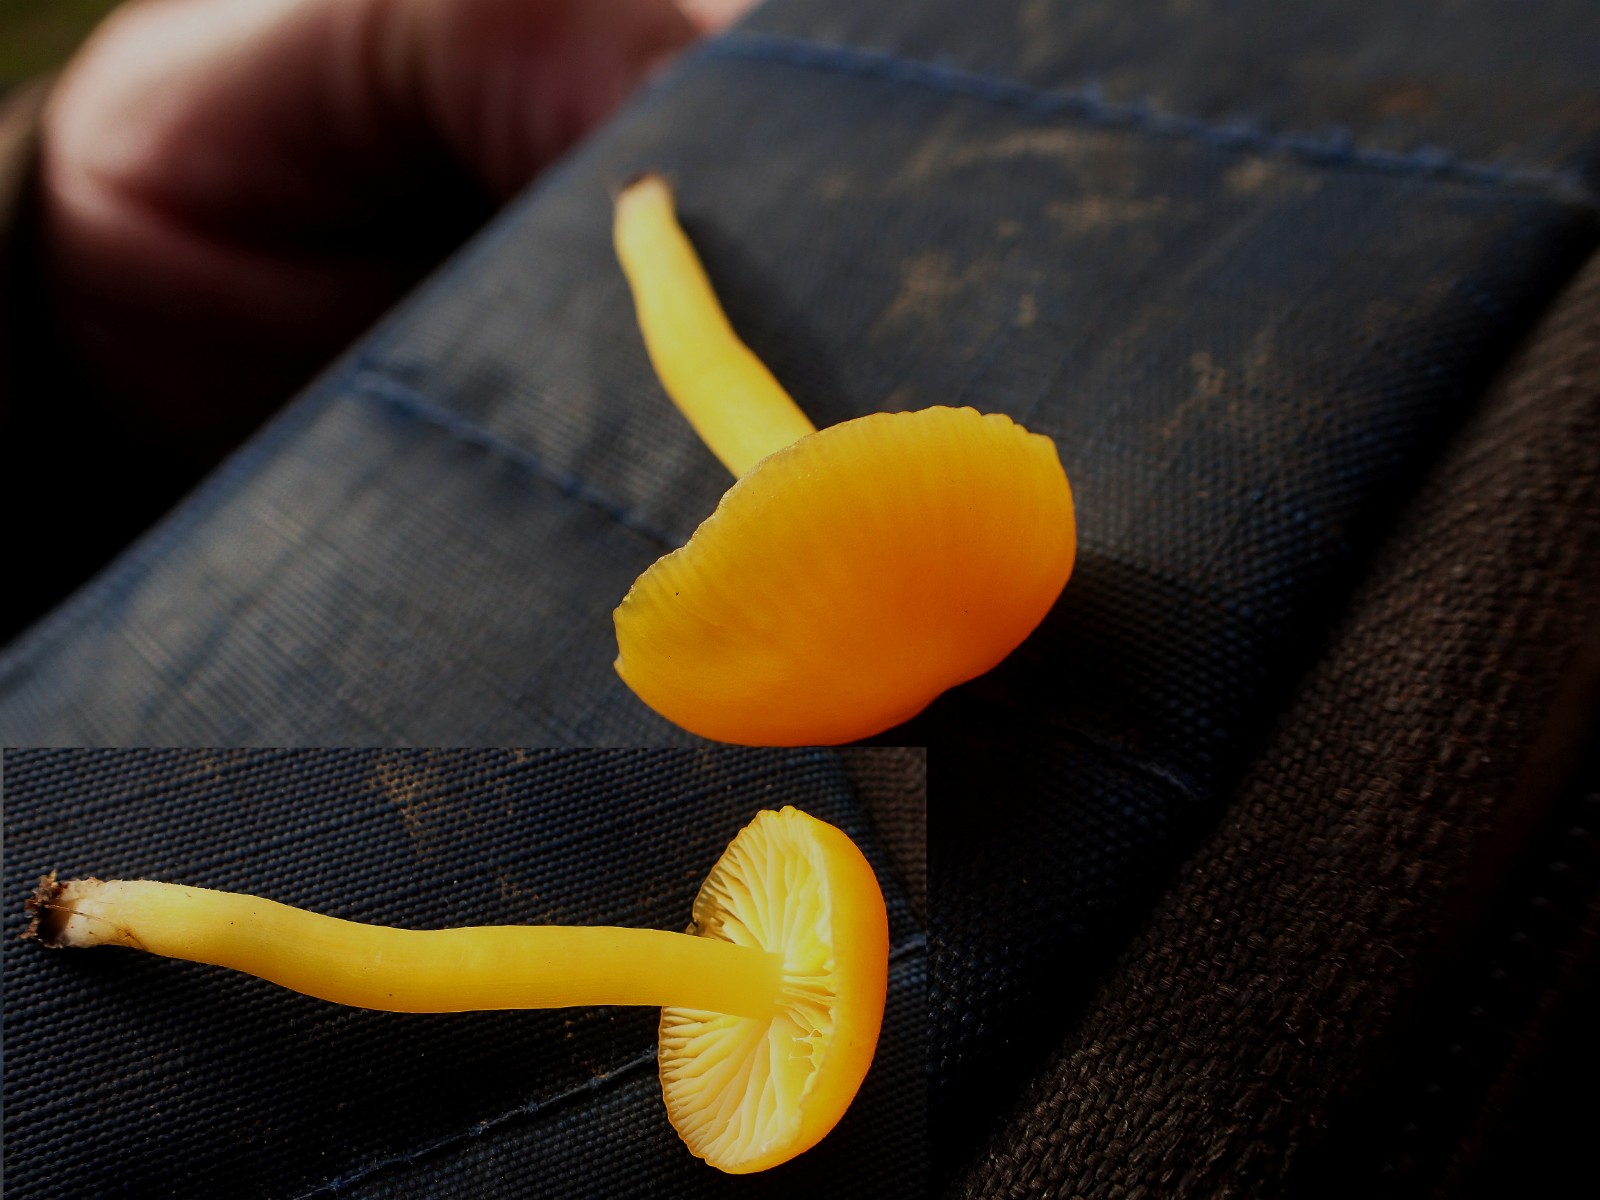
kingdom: Fungi
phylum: Basidiomycota
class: Agaricomycetes
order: Agaricales
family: Hygrophoraceae
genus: Hygrocybe
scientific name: Hygrocybe ceracea
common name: voksgul vokshat
